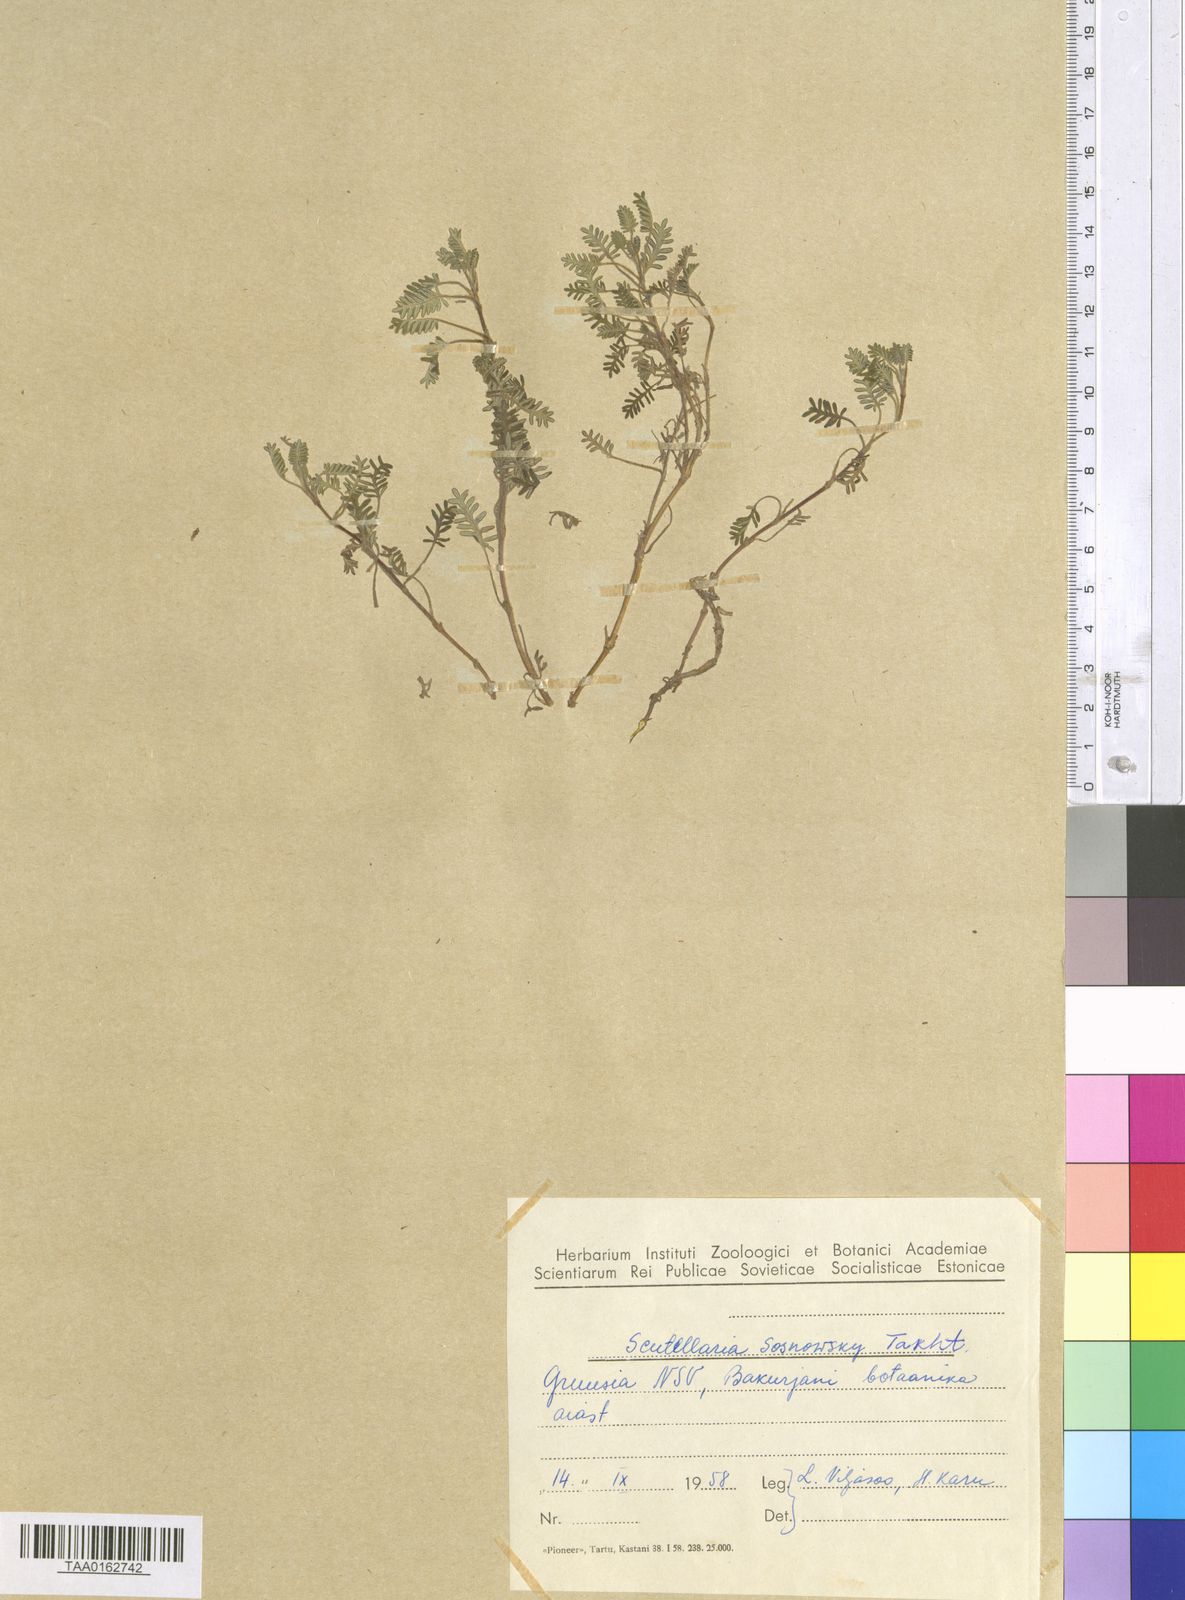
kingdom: Plantae
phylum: Tracheophyta
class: Magnoliopsida
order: Lamiales
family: Lamiaceae
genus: Scutellaria
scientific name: Scutellaria sosnowskyi
